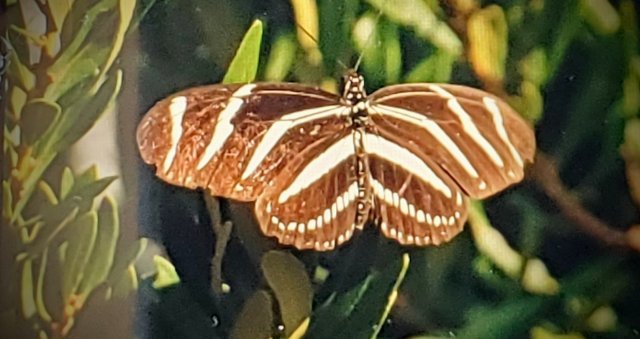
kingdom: Animalia
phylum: Arthropoda
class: Insecta
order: Lepidoptera
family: Nymphalidae
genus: Heliconius
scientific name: Heliconius charithonia
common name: Zebra Longwing
